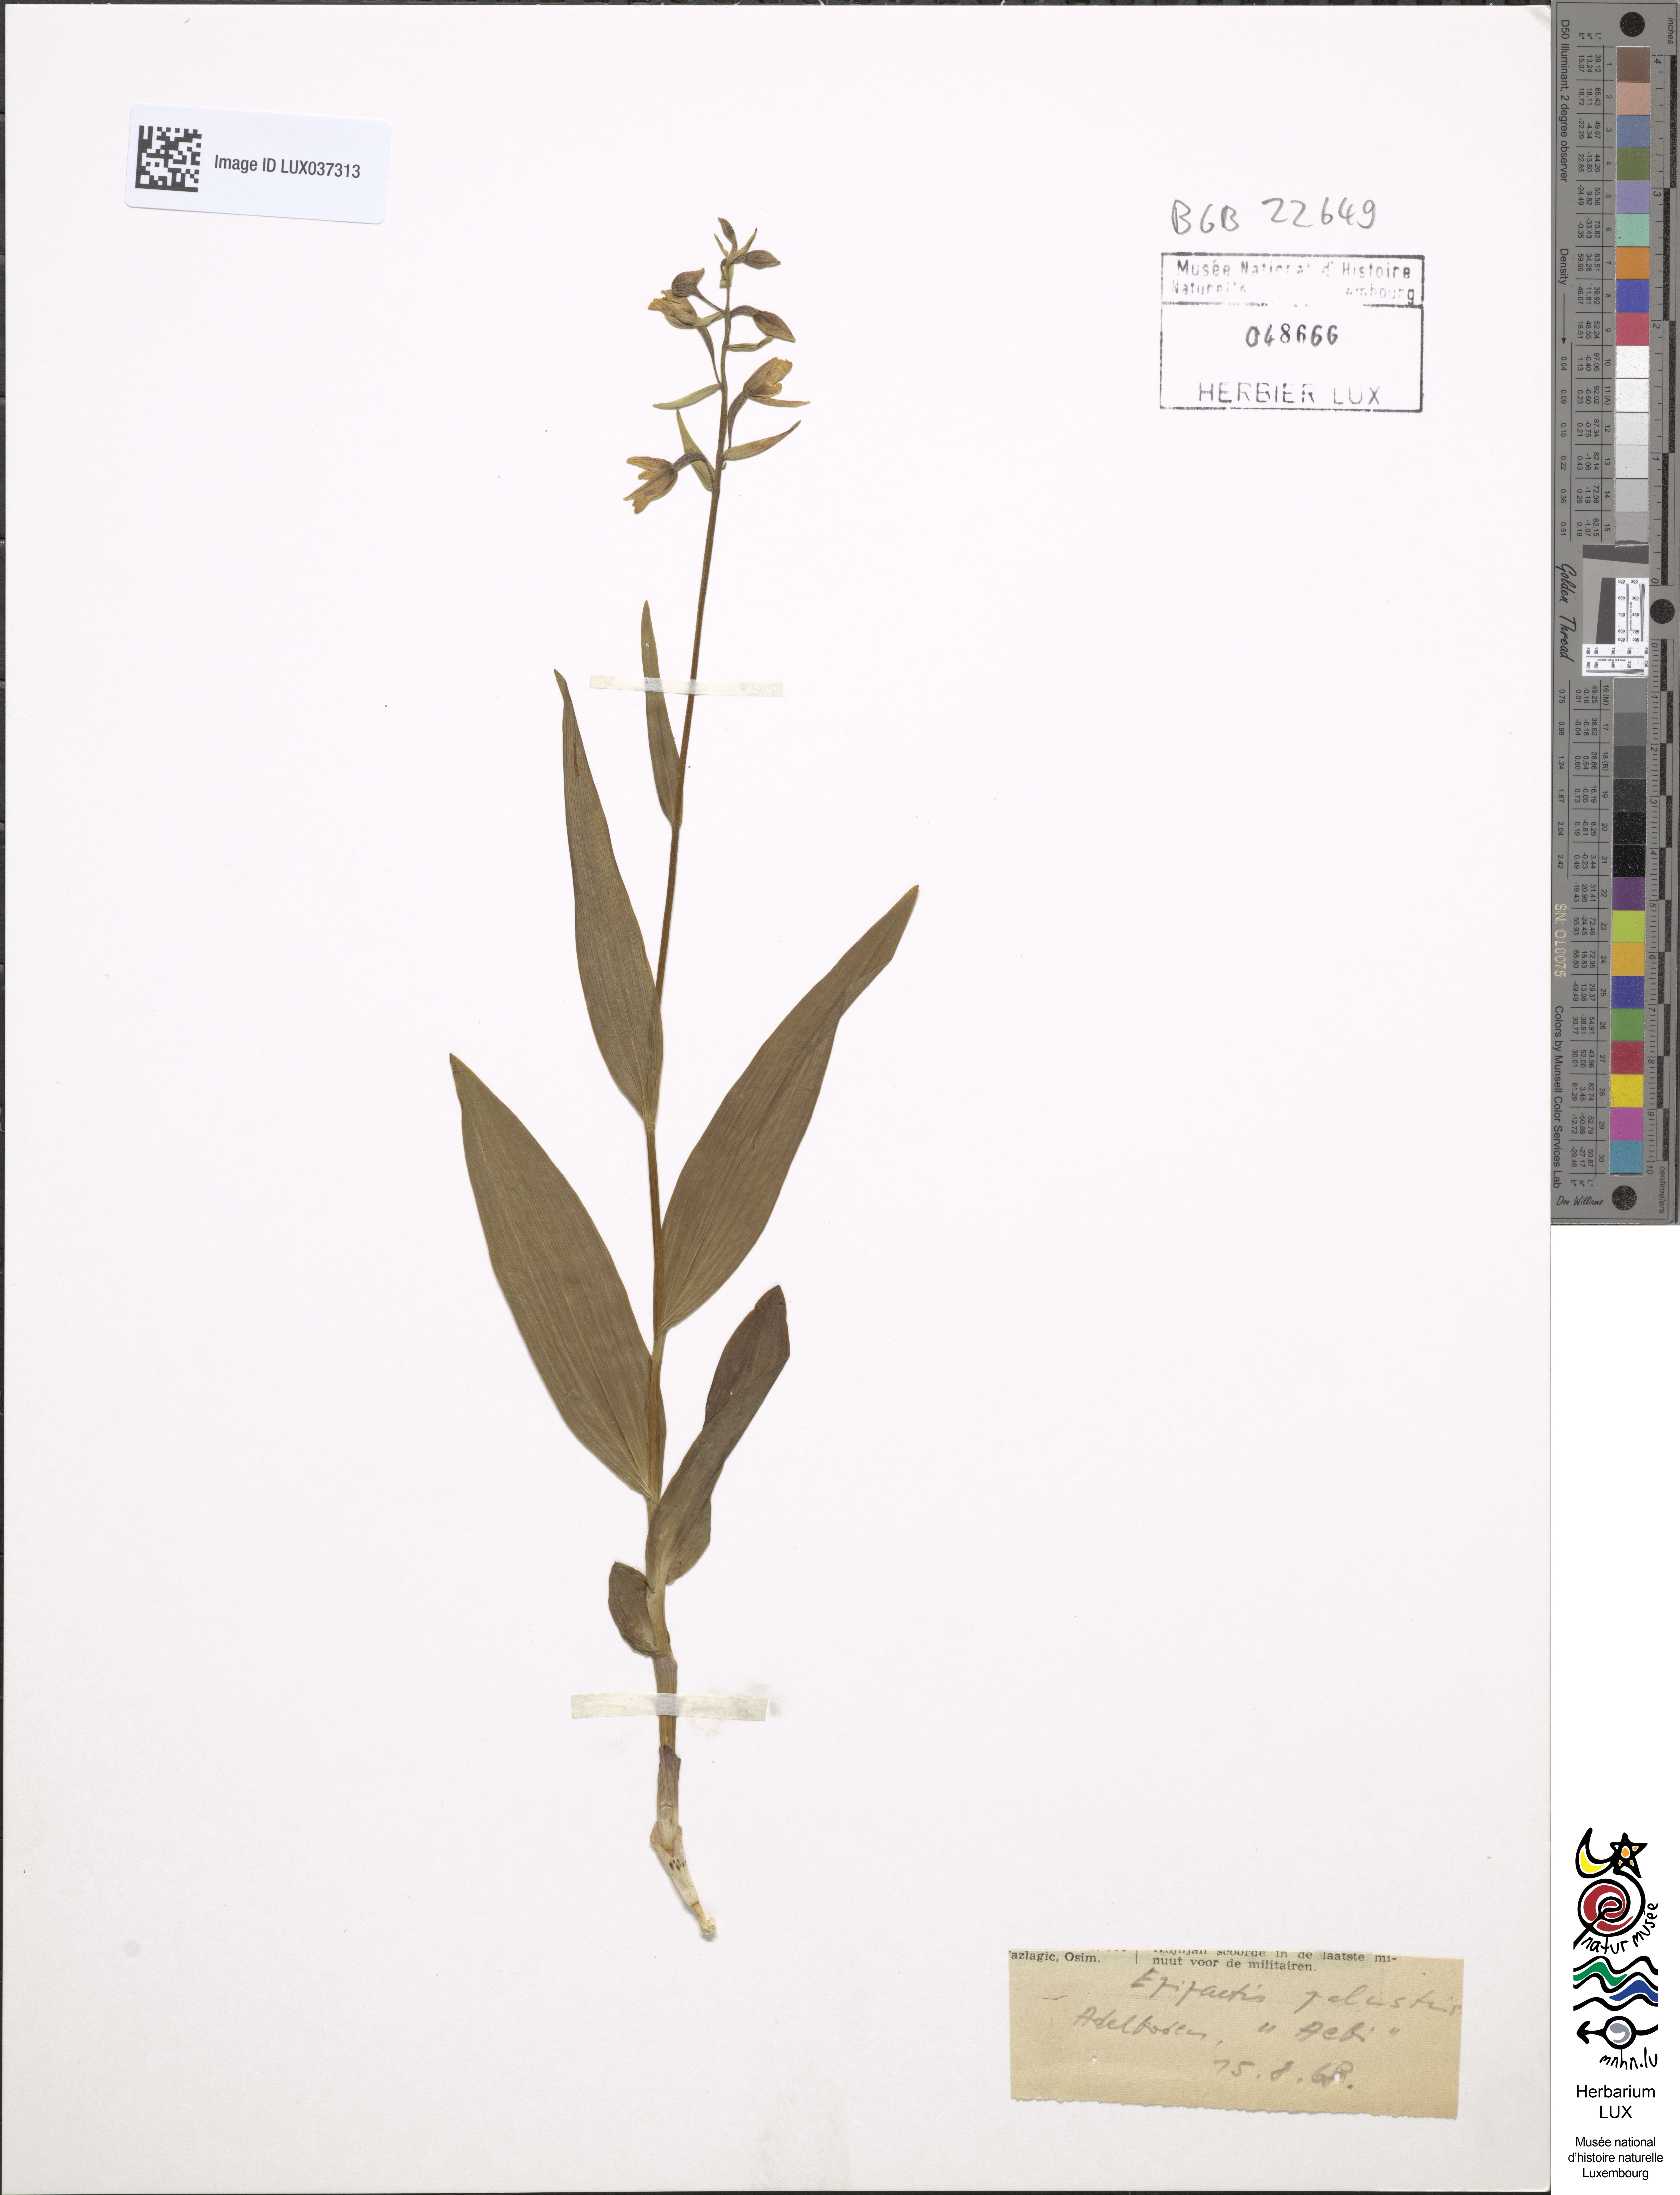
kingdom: Plantae
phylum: Tracheophyta
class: Liliopsida
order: Asparagales
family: Orchidaceae
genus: Epipactis
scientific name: Epipactis palustris
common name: Marsh helleborine
